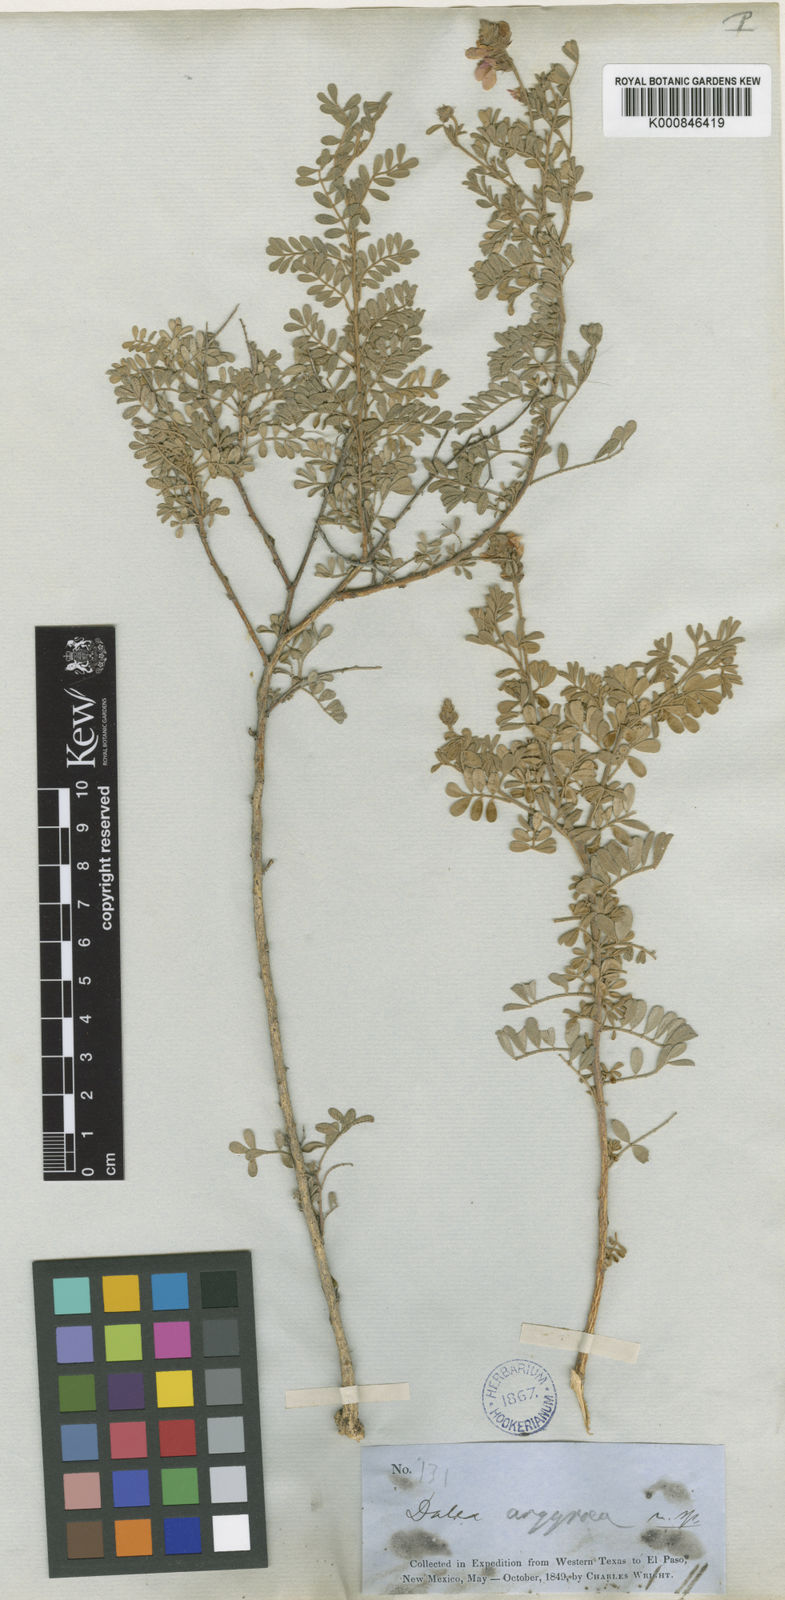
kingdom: Plantae
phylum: Tracheophyta
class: Magnoliopsida
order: Fabales
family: Fabaceae
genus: Dalea
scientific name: Dalea bicolor
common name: Silver prairie-clover
